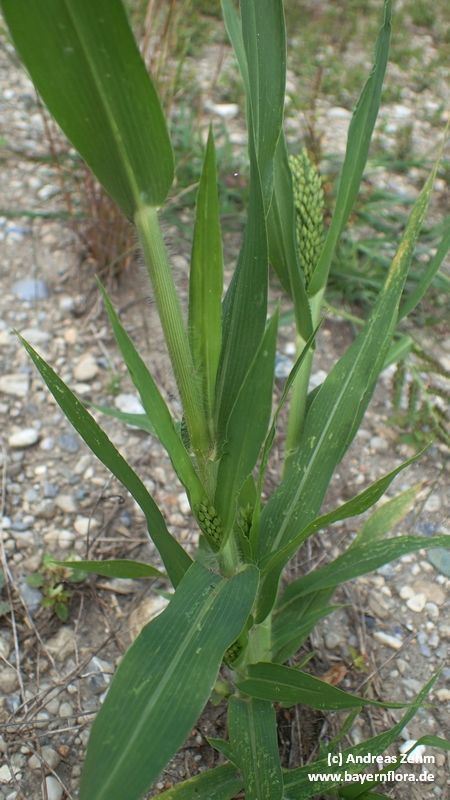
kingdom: Plantae
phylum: Tracheophyta
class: Liliopsida
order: Poales
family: Poaceae
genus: Panicum
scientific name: Panicum miliaceum
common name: Common millet
